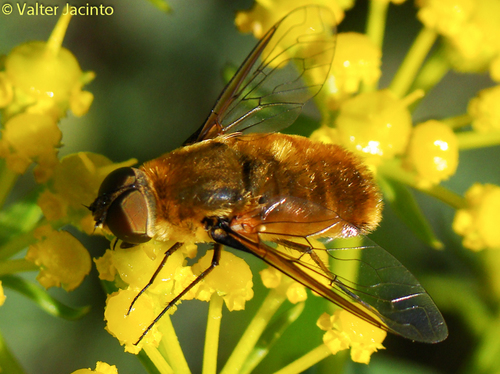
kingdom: Animalia
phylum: Arthropoda
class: Insecta
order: Diptera
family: Bombyliidae
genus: Villa
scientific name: Villa
